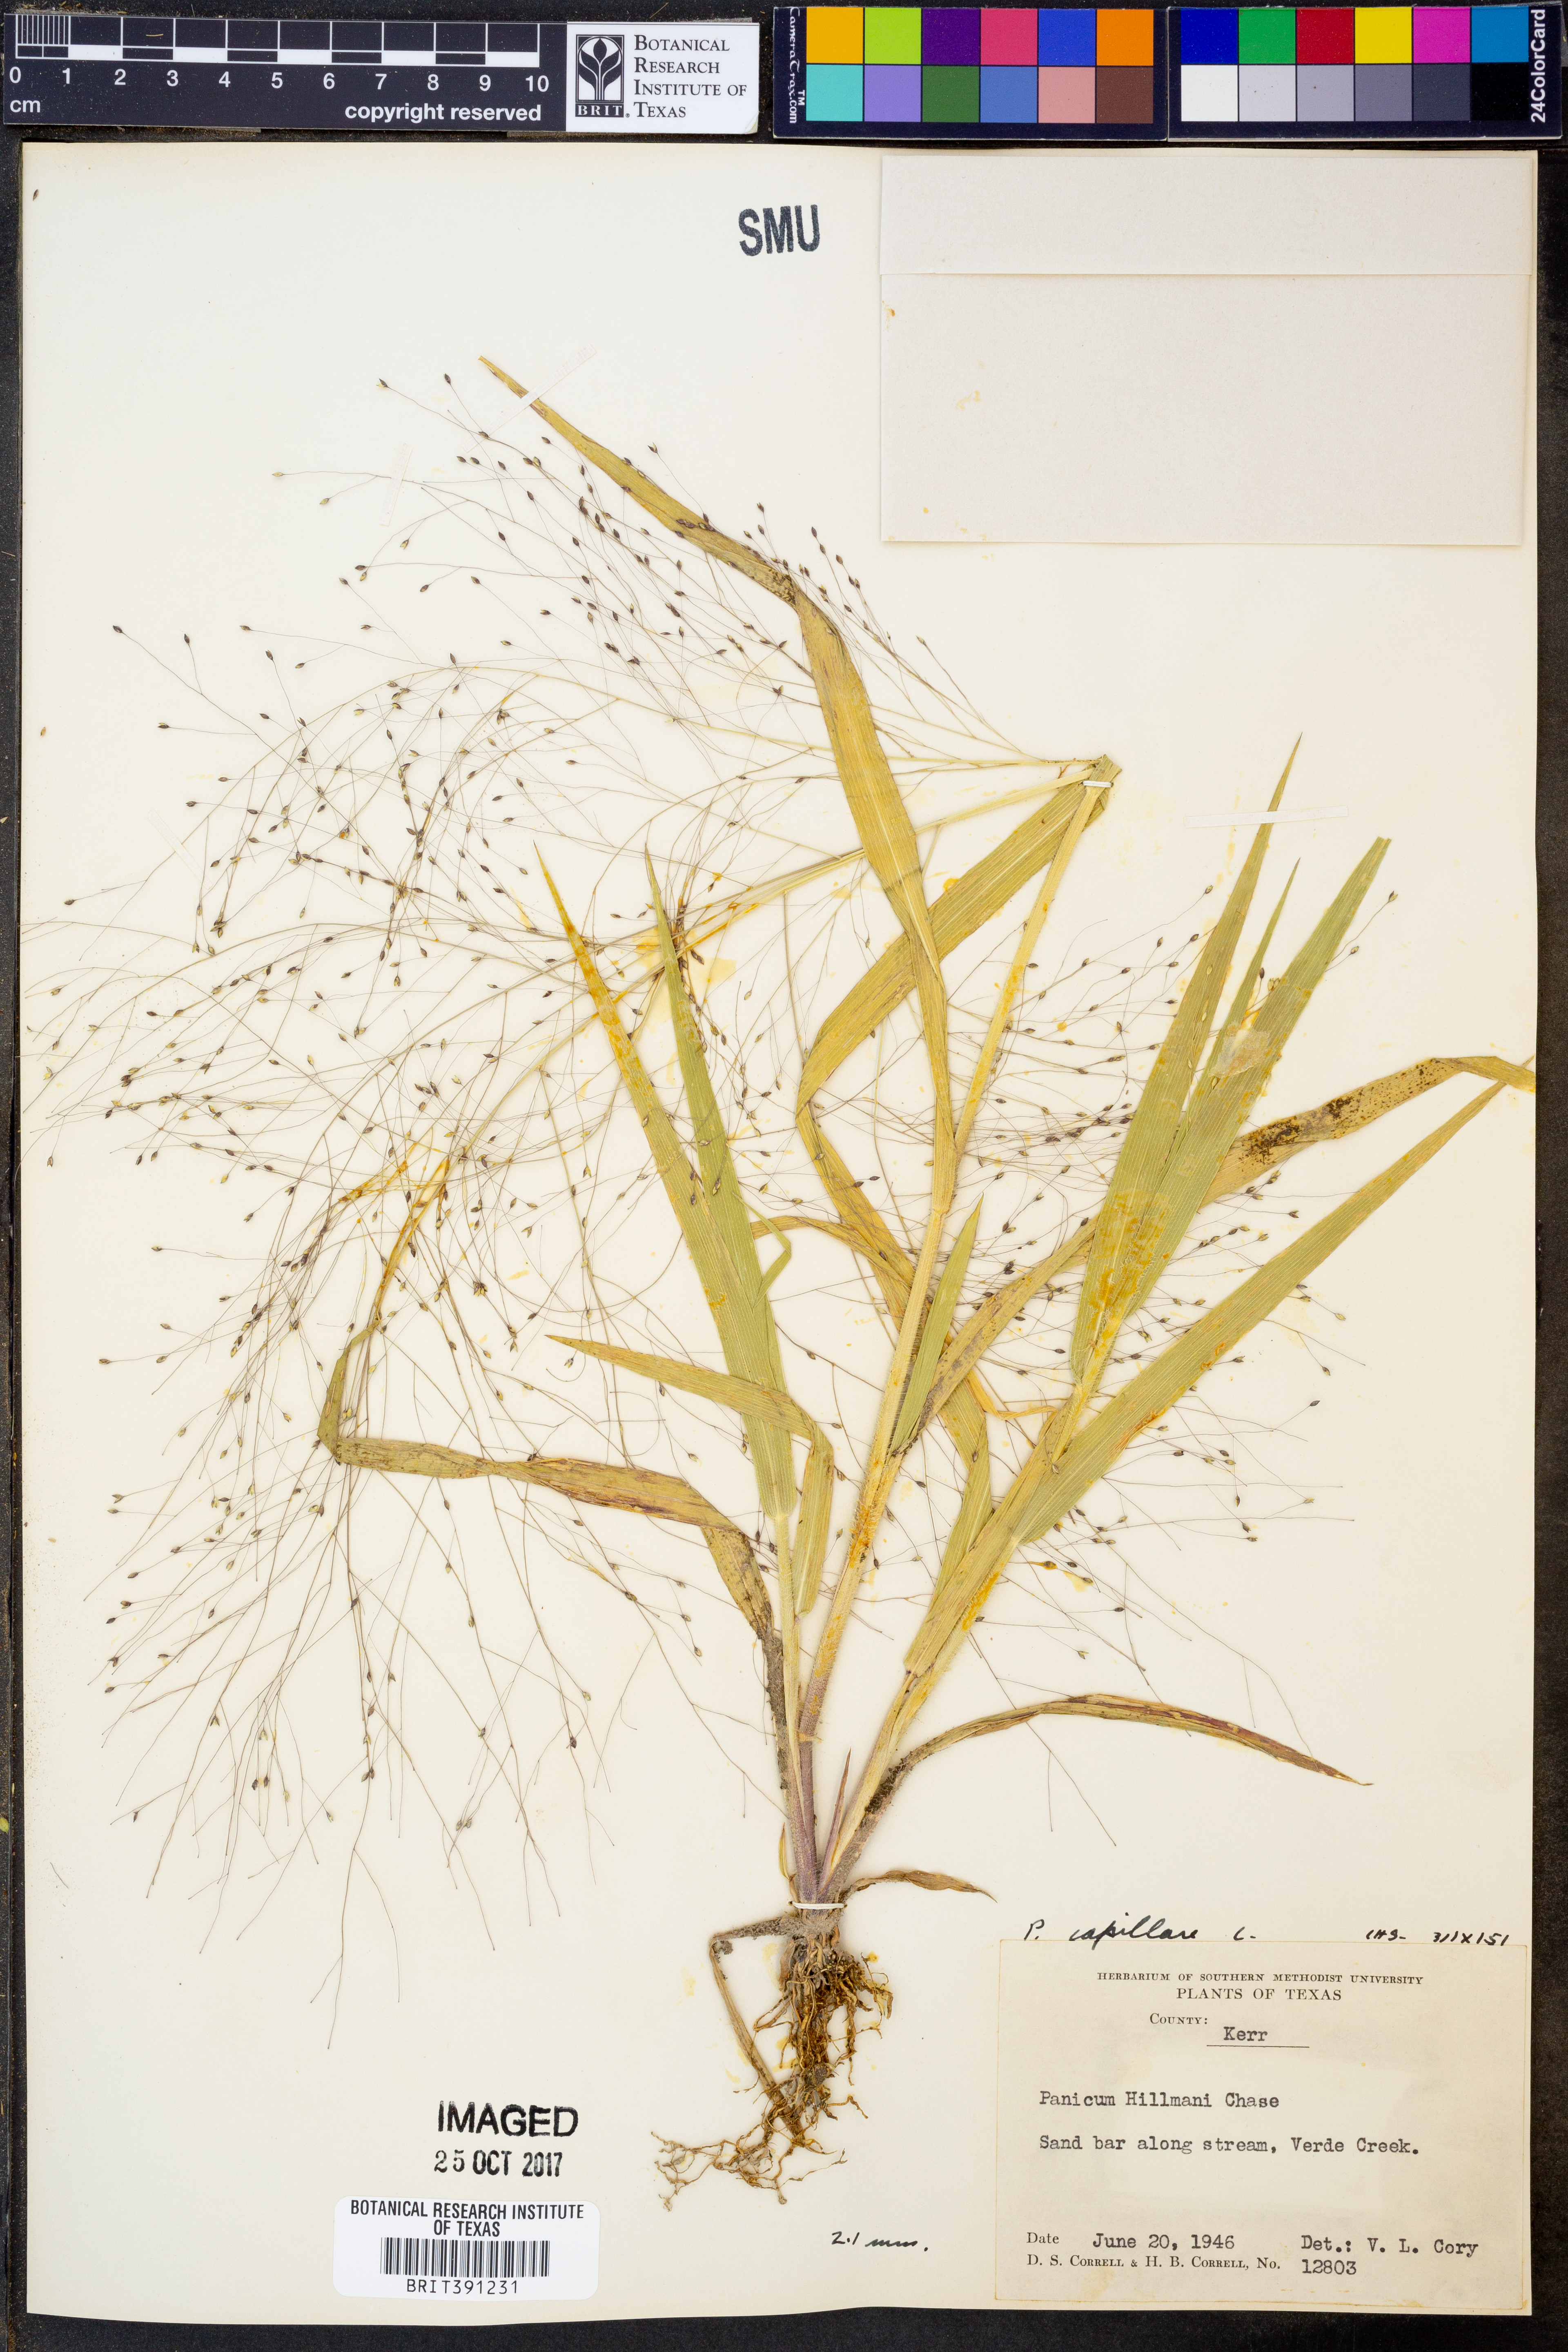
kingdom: Plantae
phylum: Tracheophyta
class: Liliopsida
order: Poales
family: Poaceae
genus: Panicum
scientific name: Panicum capillare
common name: Witch-grass
